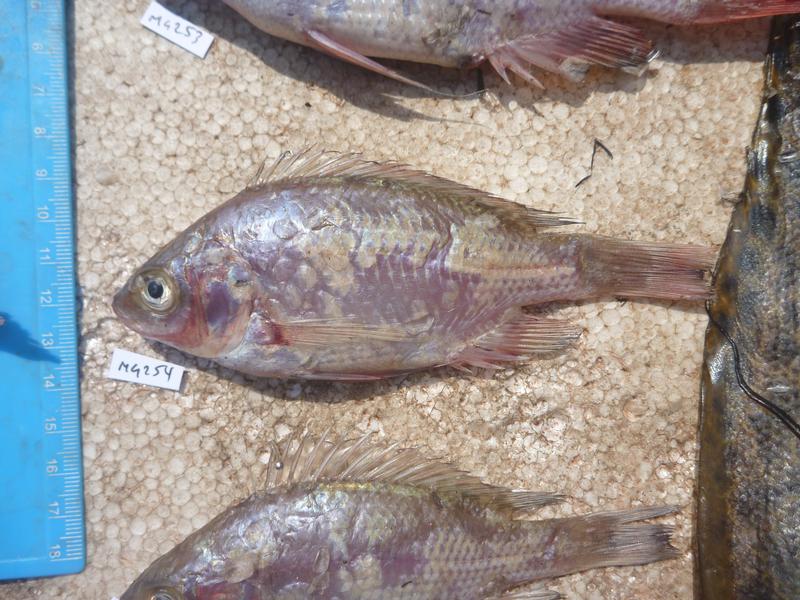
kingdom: Animalia
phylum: Chordata
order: Perciformes
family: Cichlidae
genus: Oreochromis
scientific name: Oreochromis esculentus
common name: Carp
